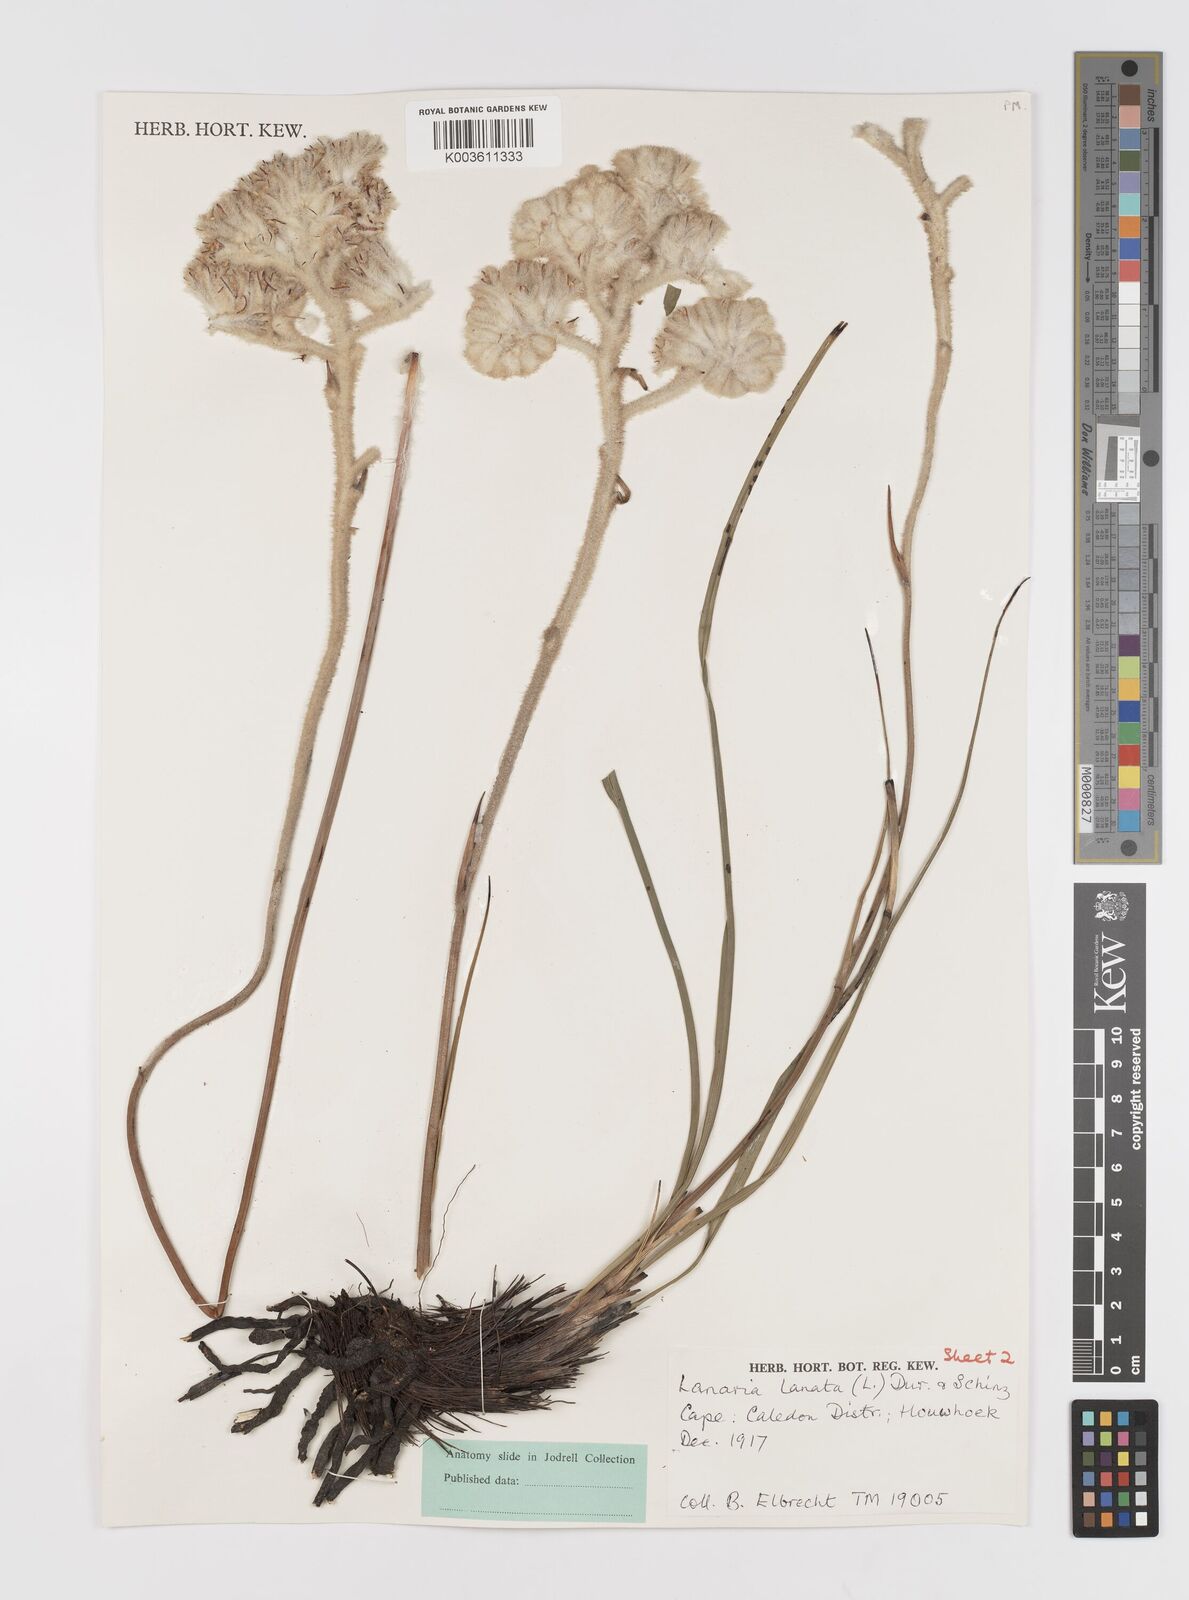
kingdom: Plantae
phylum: Tracheophyta
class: Liliopsida
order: Asparagales
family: Lanariaceae
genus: Lanaria
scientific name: Lanaria lanata
